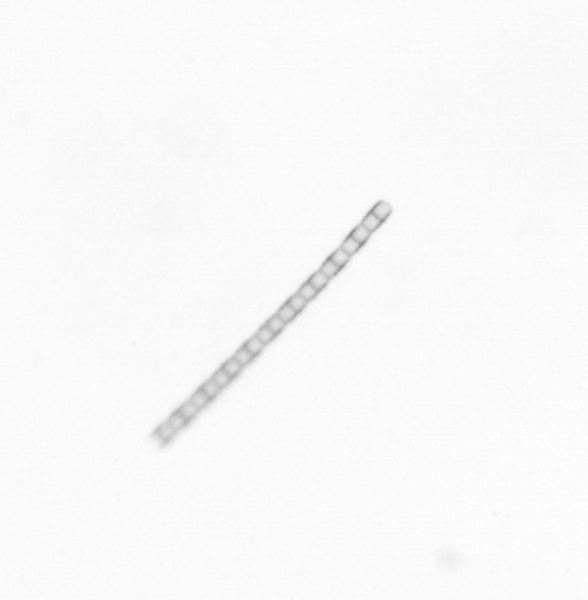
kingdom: Chromista
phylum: Ochrophyta
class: Bacillariophyceae
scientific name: Bacillariophyceae
